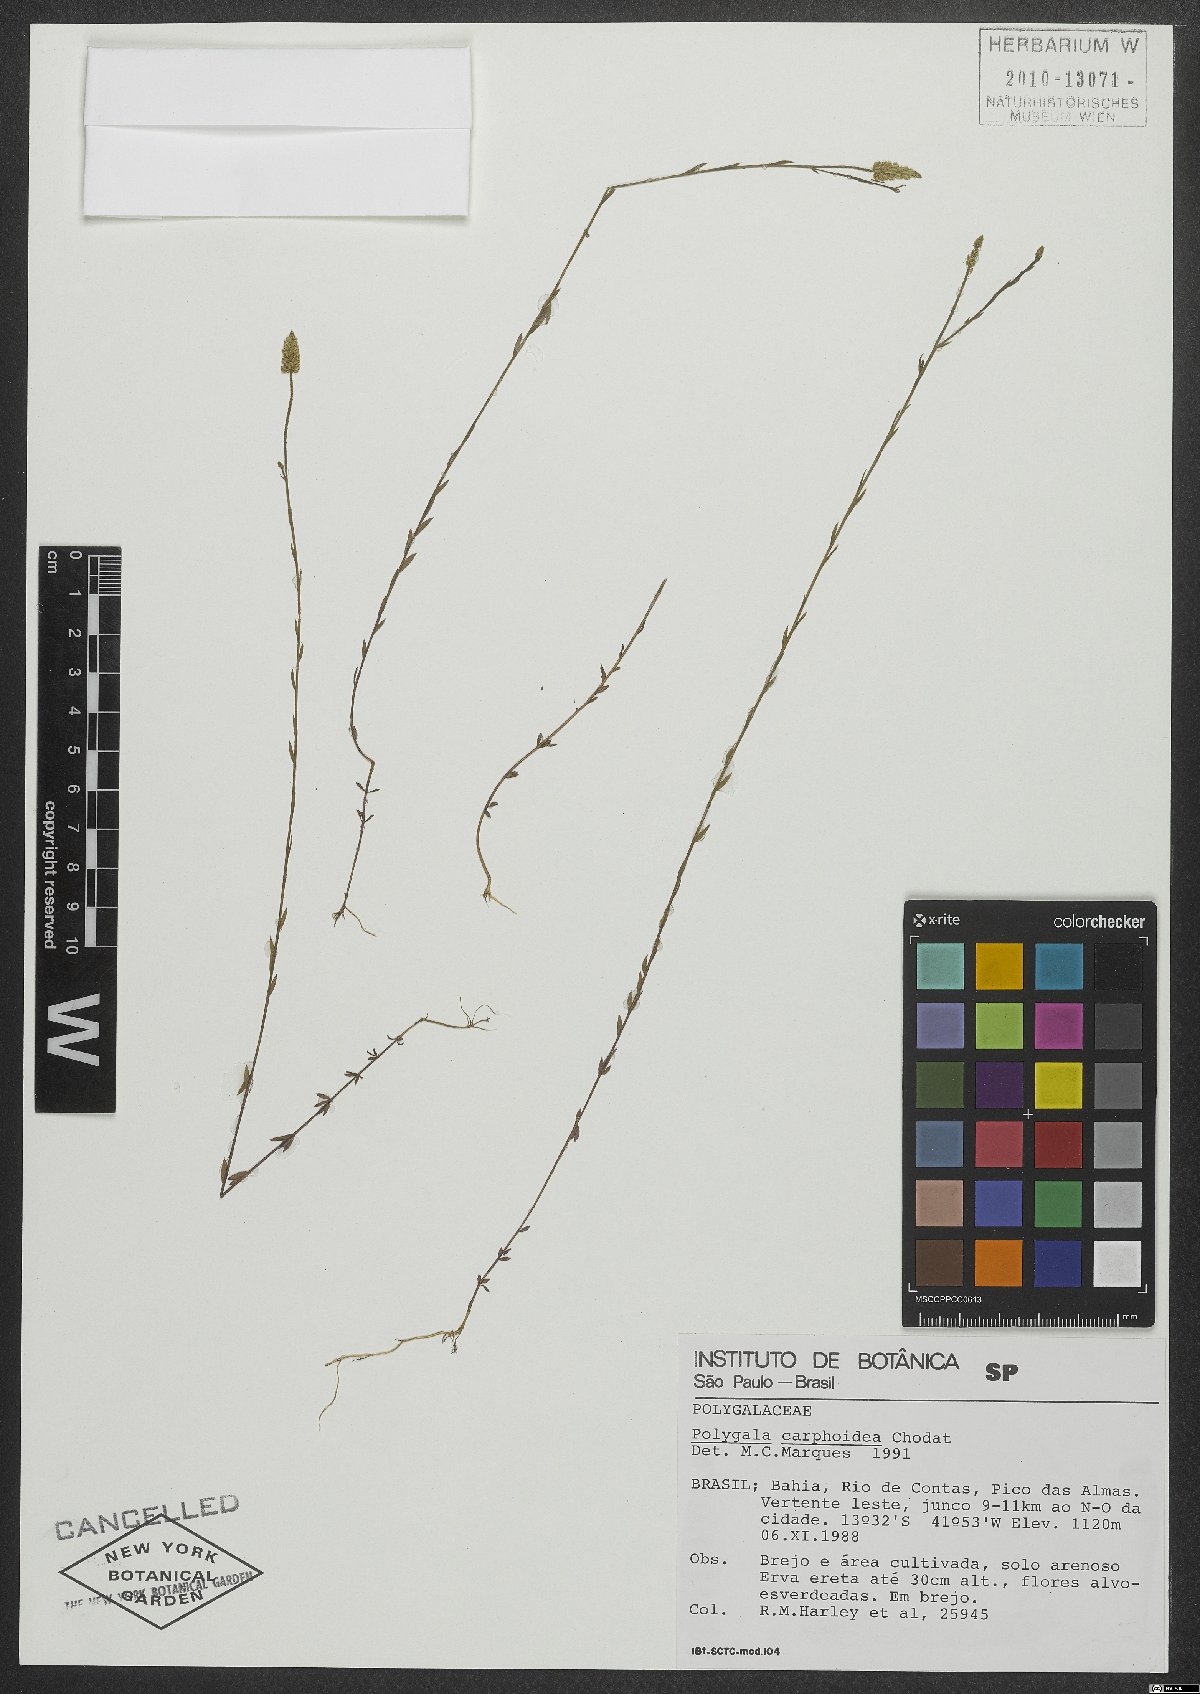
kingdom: Plantae
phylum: Tracheophyta
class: Magnoliopsida
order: Fabales
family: Polygalaceae
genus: Polygala
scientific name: Polygala carphoides
